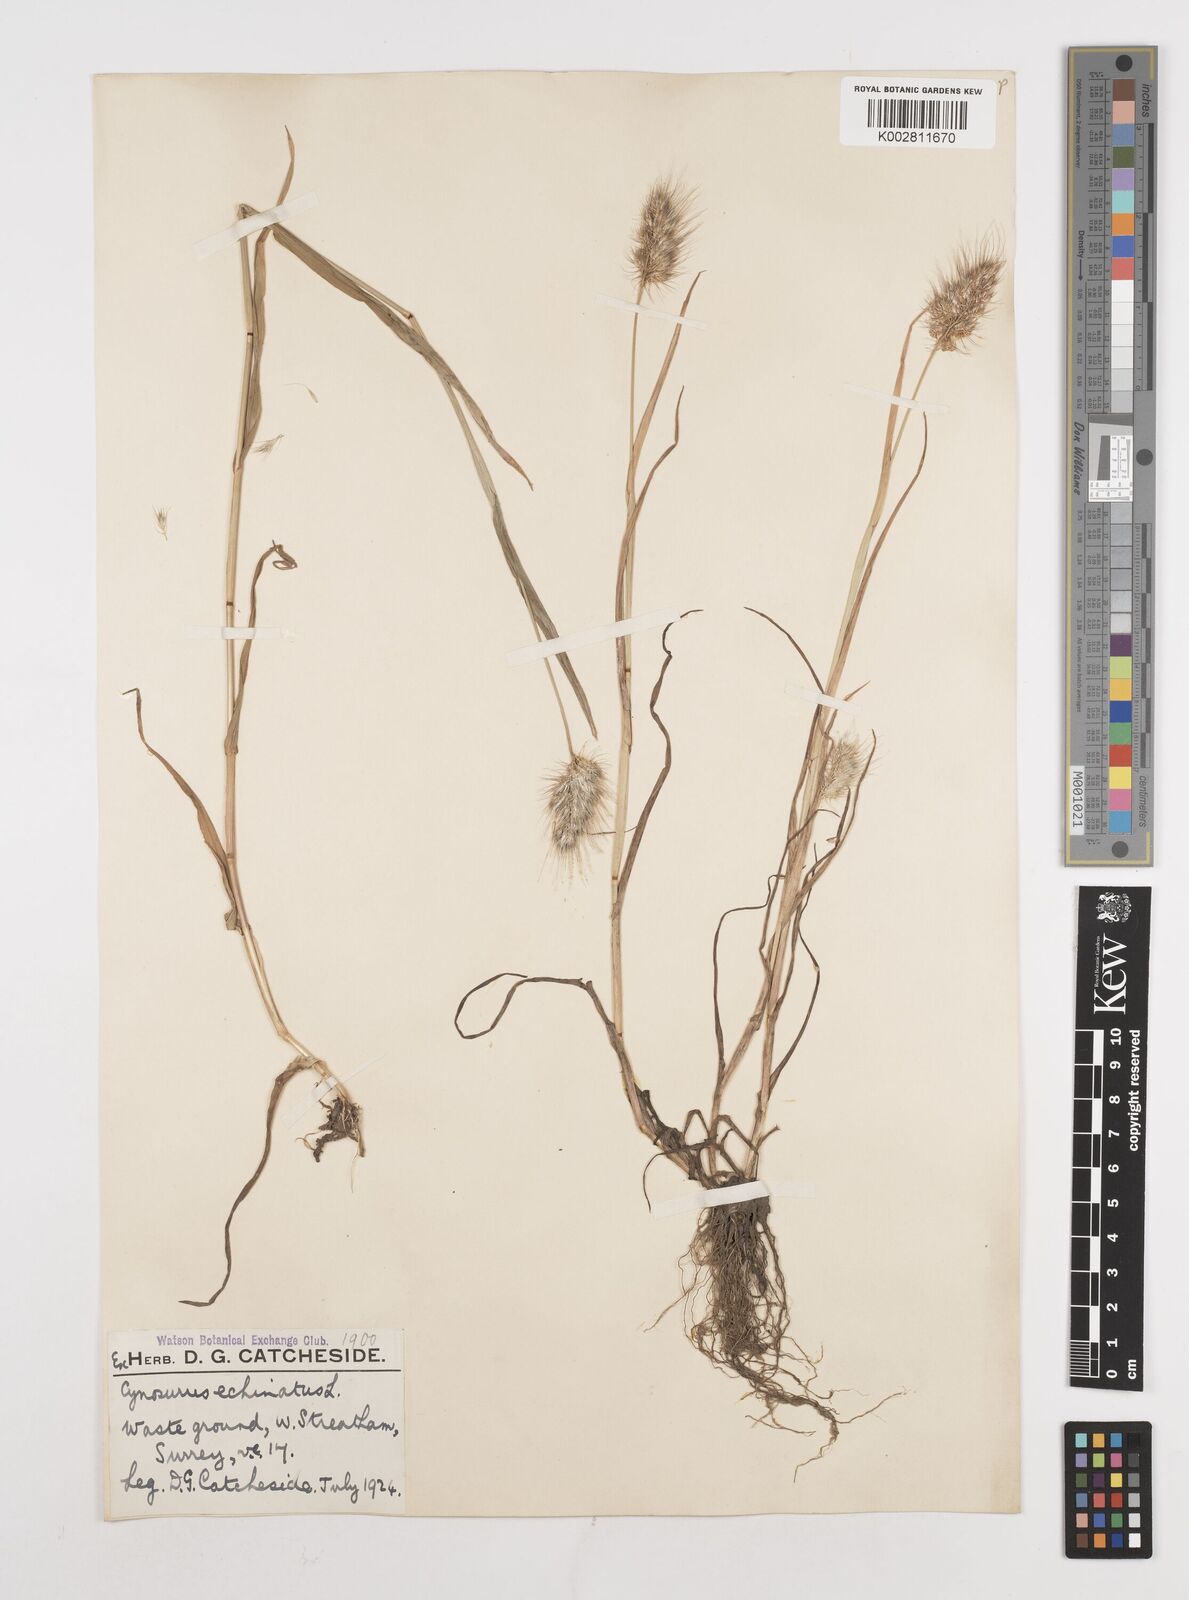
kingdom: Plantae
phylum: Tracheophyta
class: Liliopsida
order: Poales
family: Poaceae
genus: Cynosurus
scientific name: Cynosurus echinatus
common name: Rough dog's-tail
